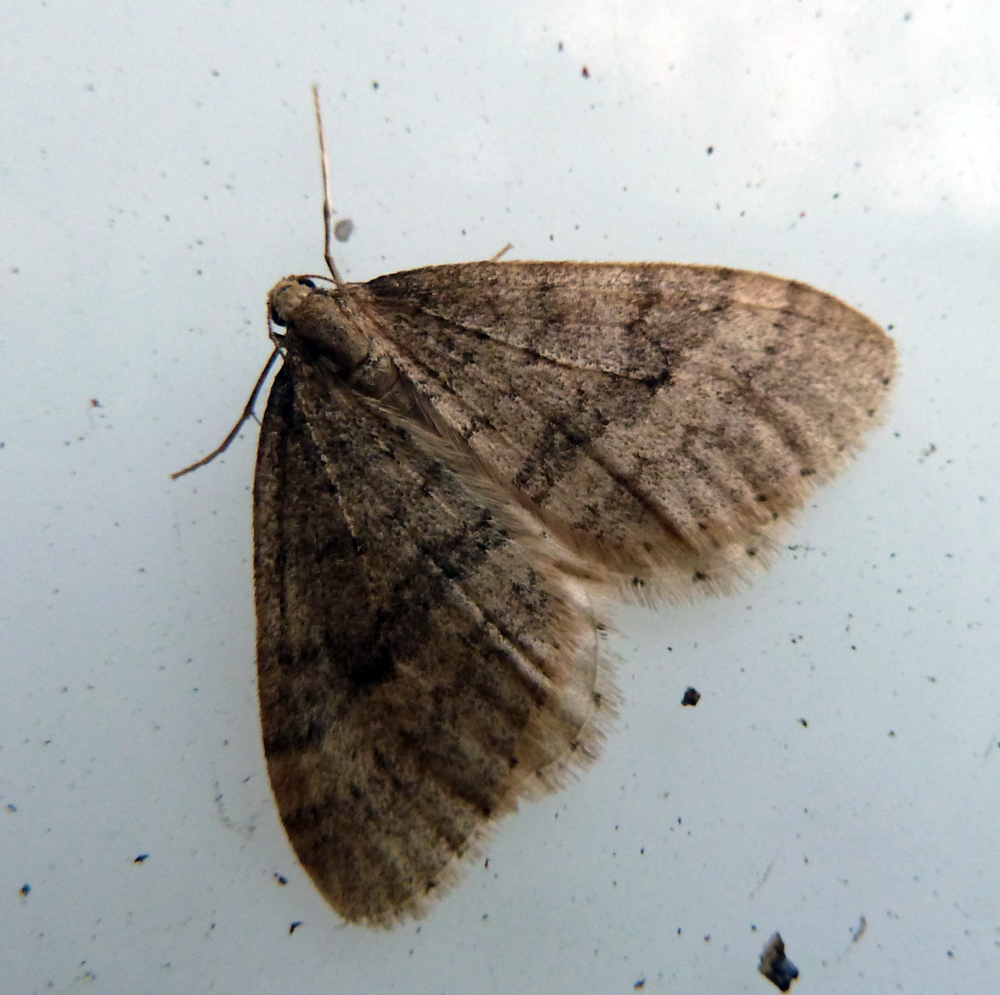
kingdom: Animalia
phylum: Arthropoda
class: Insecta
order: Lepidoptera
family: Geometridae
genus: Operophtera
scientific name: Operophtera brumata
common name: Winter moth
